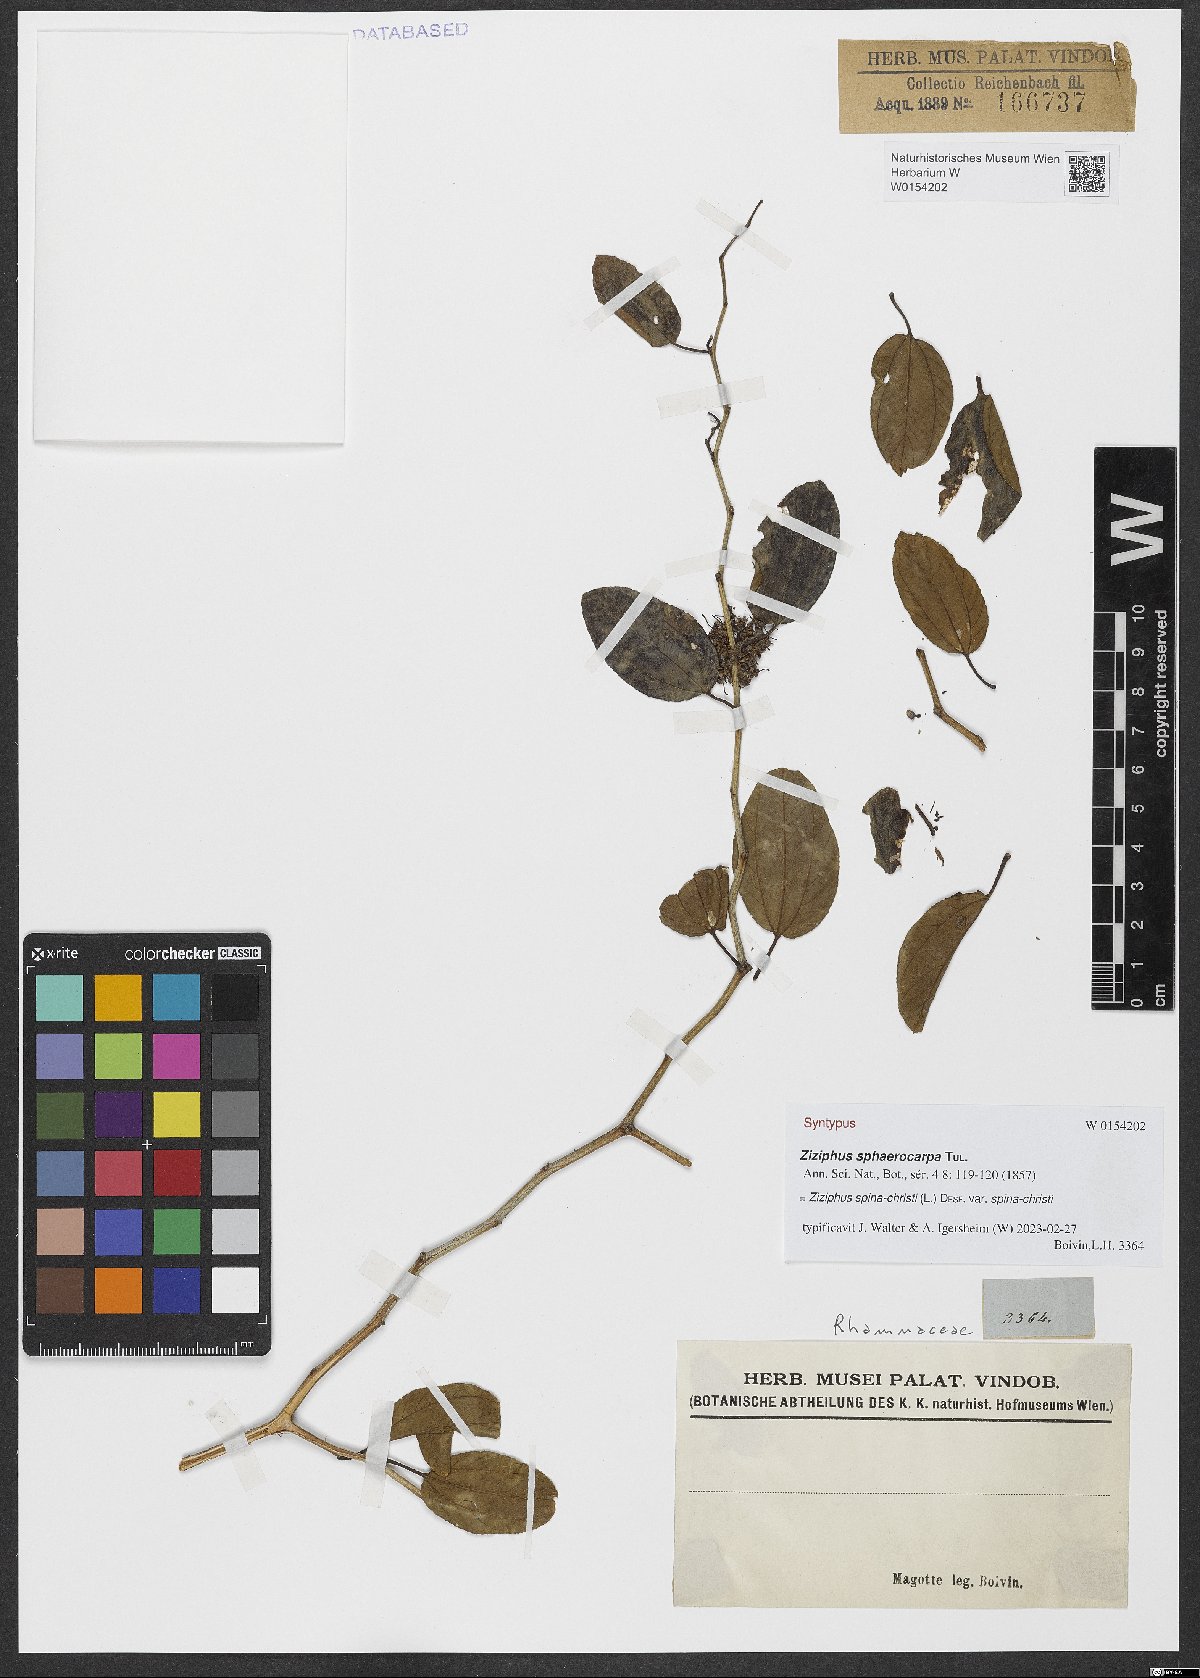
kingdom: Plantae
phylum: Tracheophyta
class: Magnoliopsida
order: Rosales
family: Rhamnaceae
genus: Ziziphus
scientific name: Ziziphus spina-christi
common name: Syrian christ-thorn
